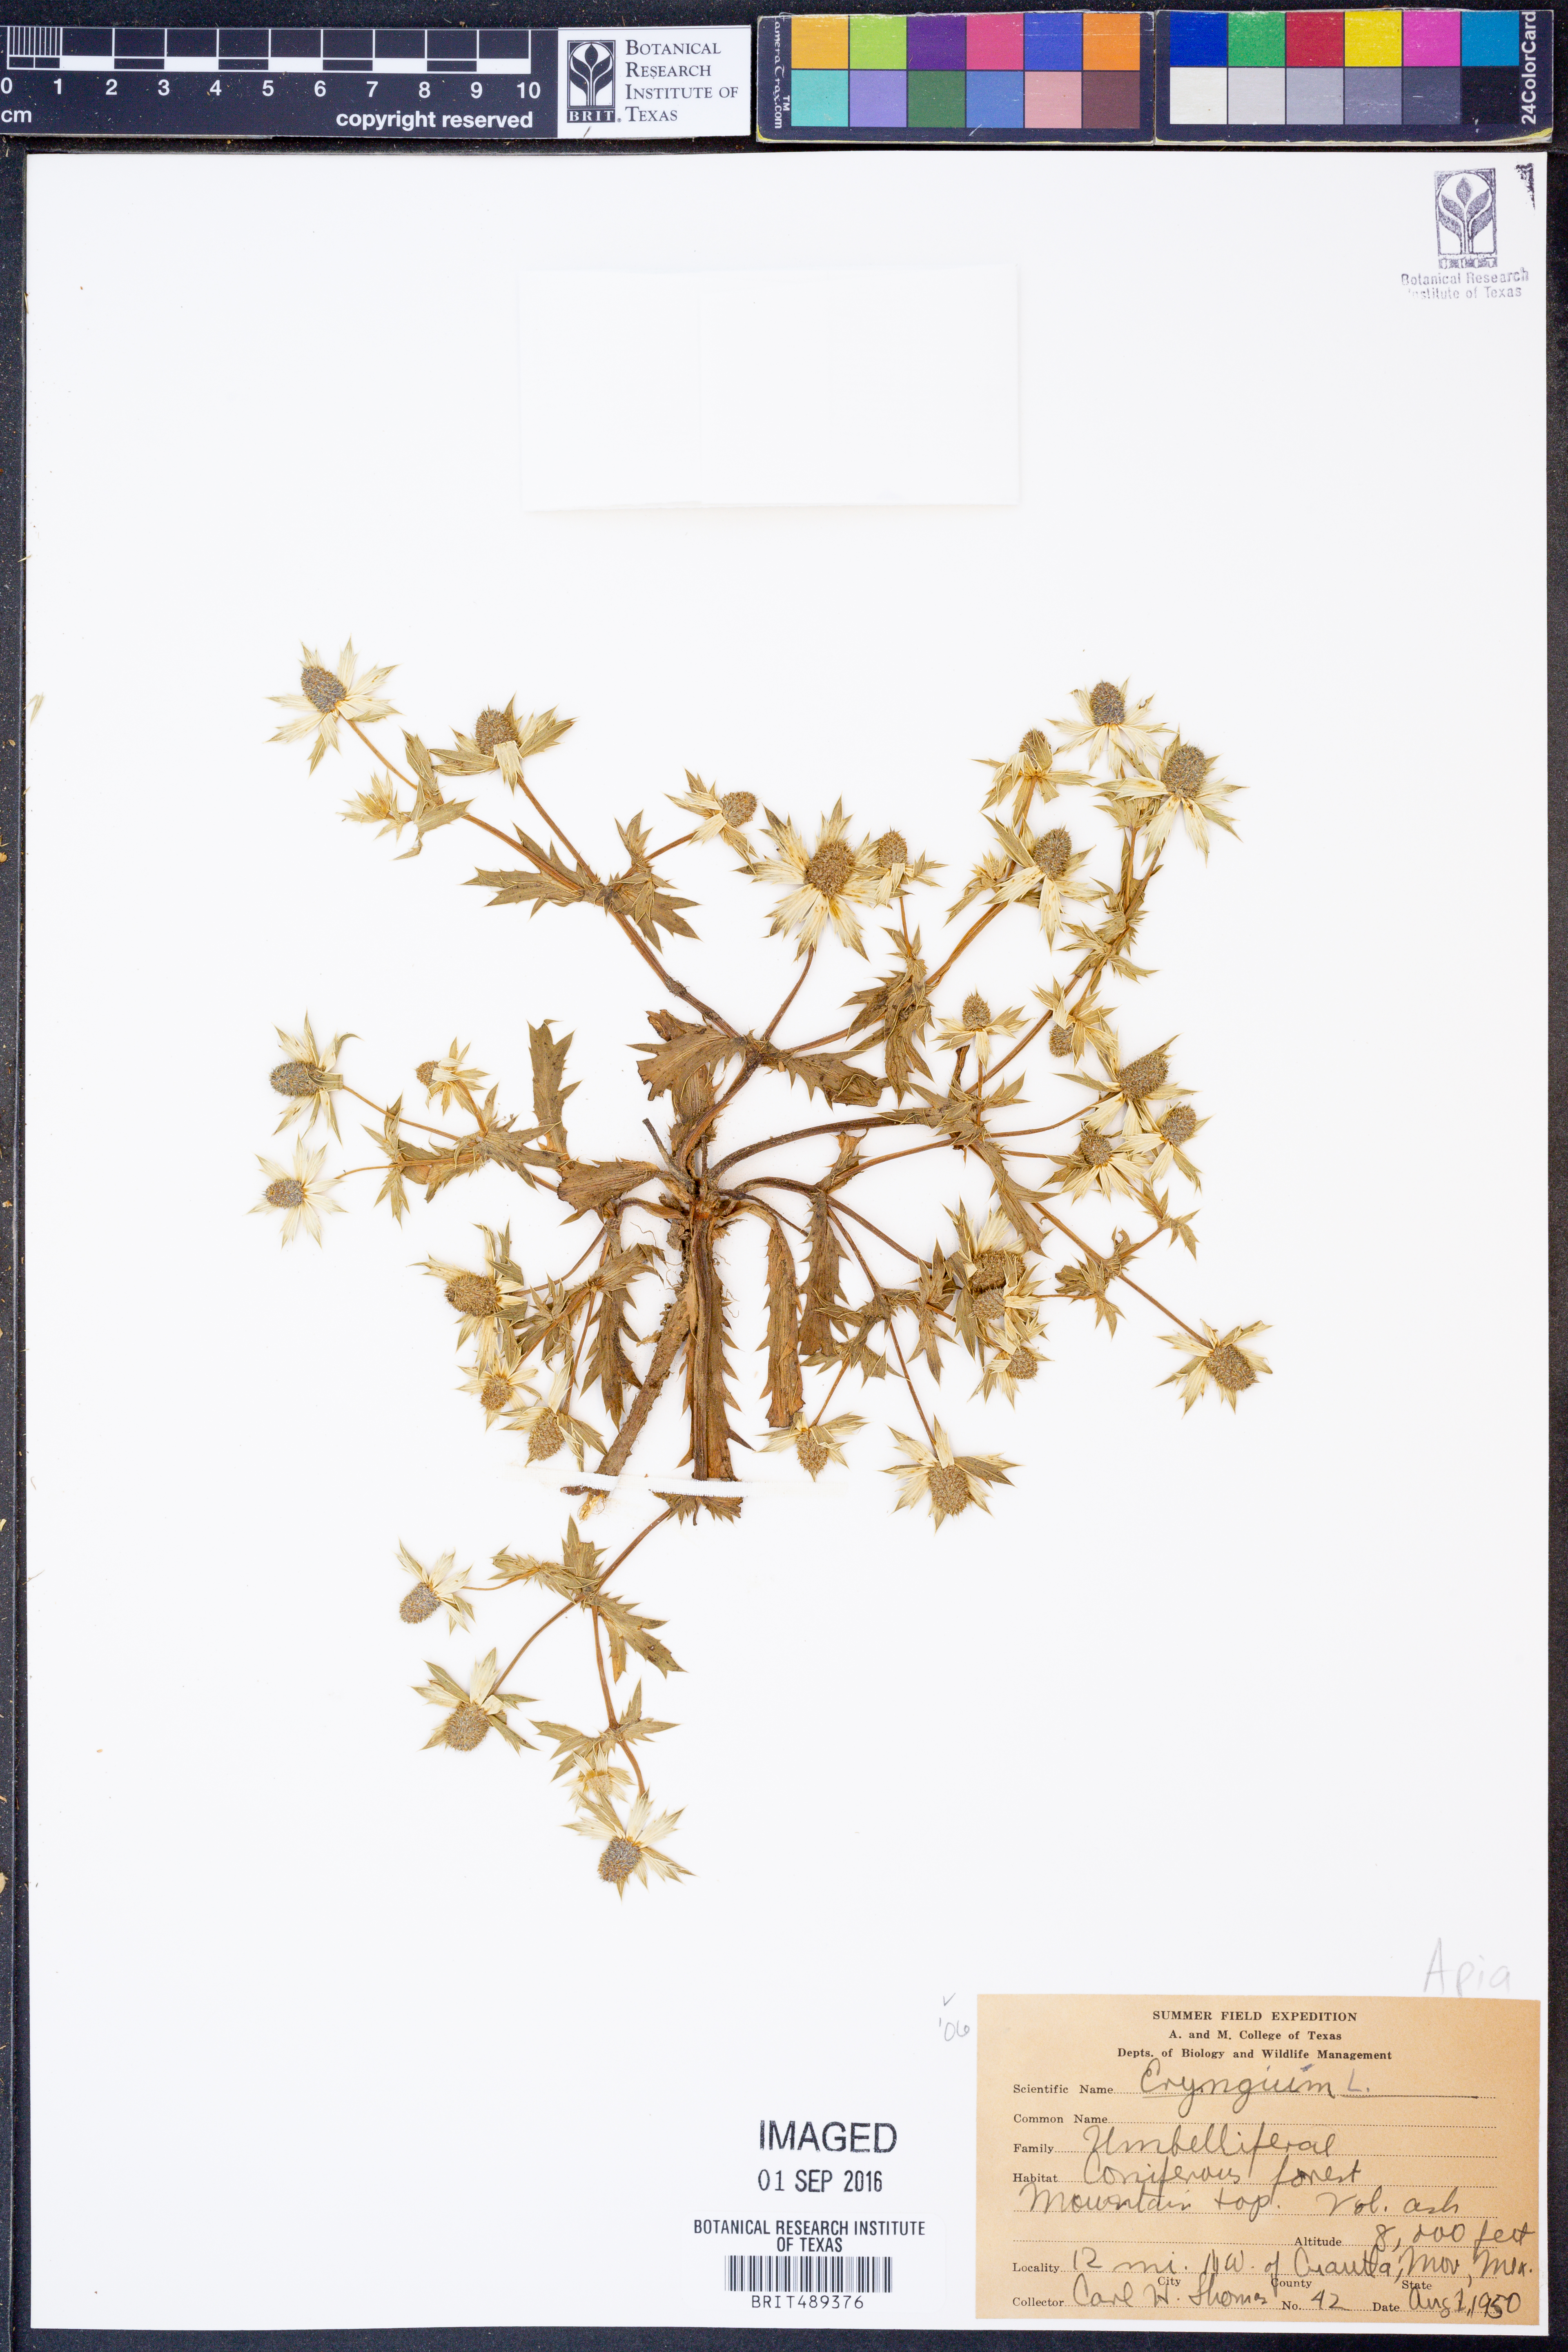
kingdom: Plantae
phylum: Tracheophyta
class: Magnoliopsida
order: Apiales
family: Apiaceae
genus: Eryngium
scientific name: Eryngium
